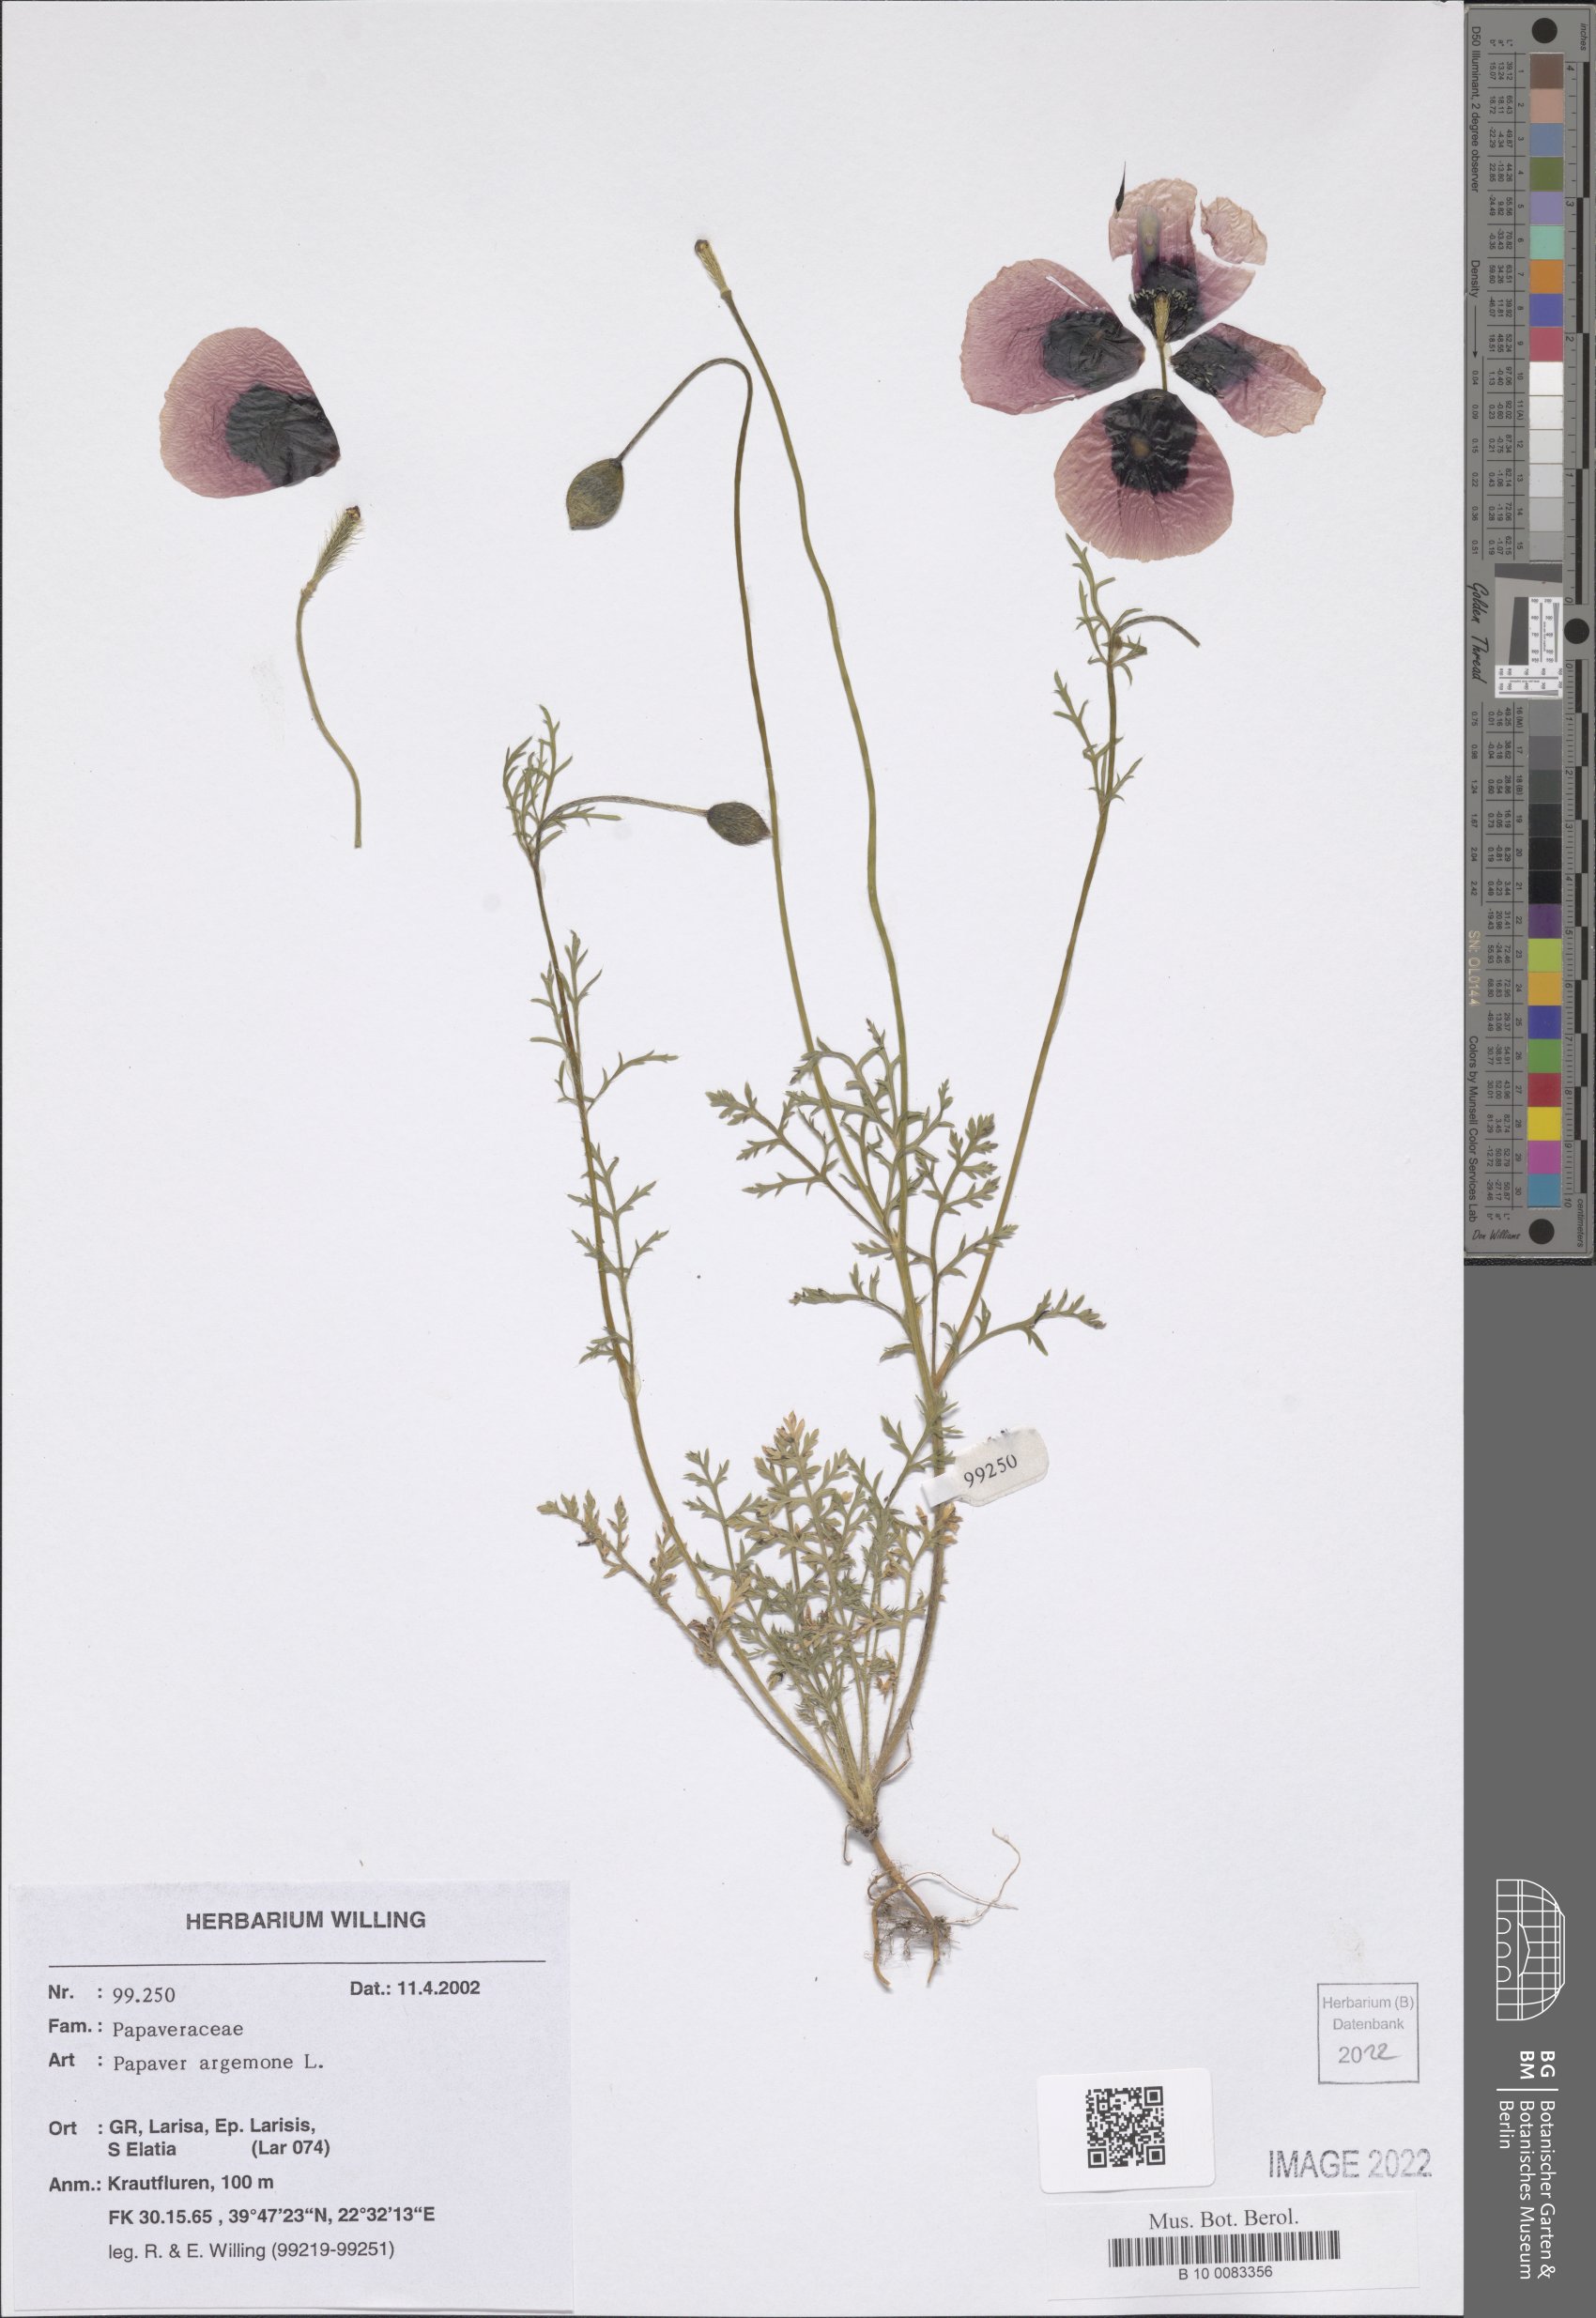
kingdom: Plantae
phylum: Tracheophyta
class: Magnoliopsida
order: Ranunculales
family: Papaveraceae
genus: Roemeria
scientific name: Roemeria argemone
